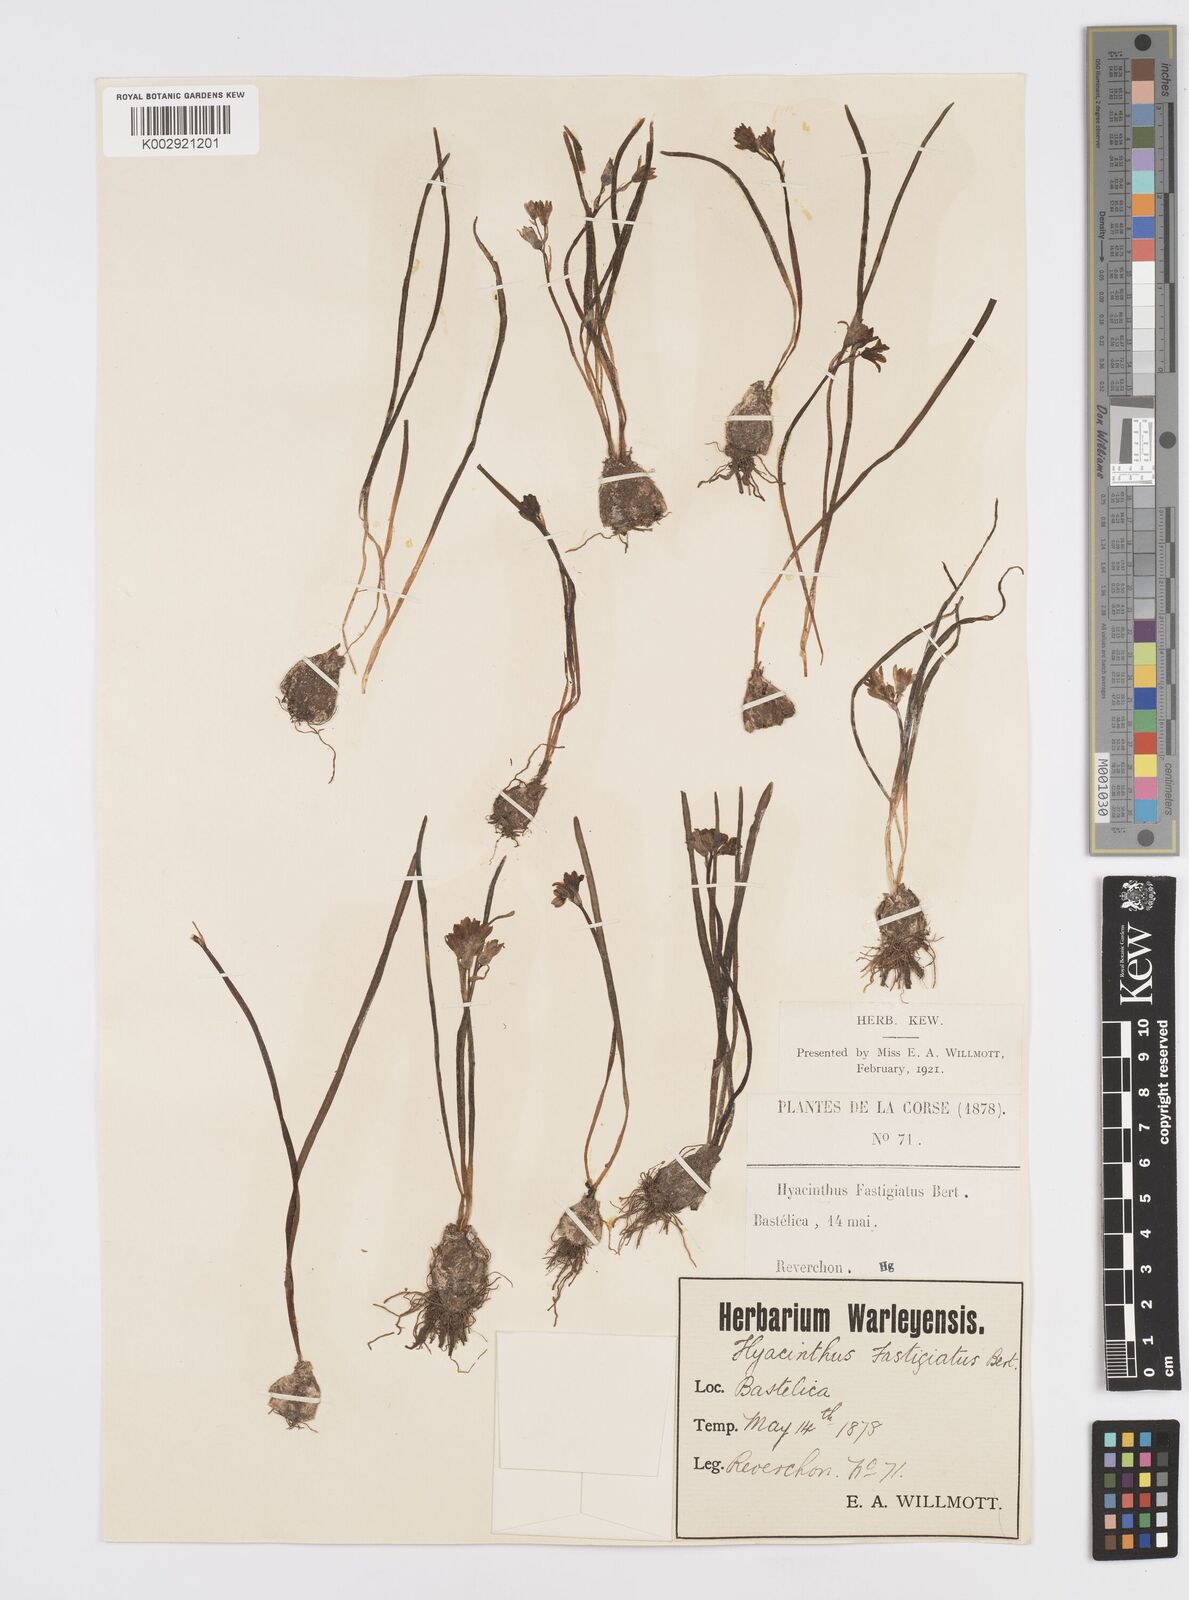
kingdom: Plantae
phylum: Tracheophyta
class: Liliopsida
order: Asparagales
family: Asparagaceae
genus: Brimeura
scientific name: Brimeura fastigiata
